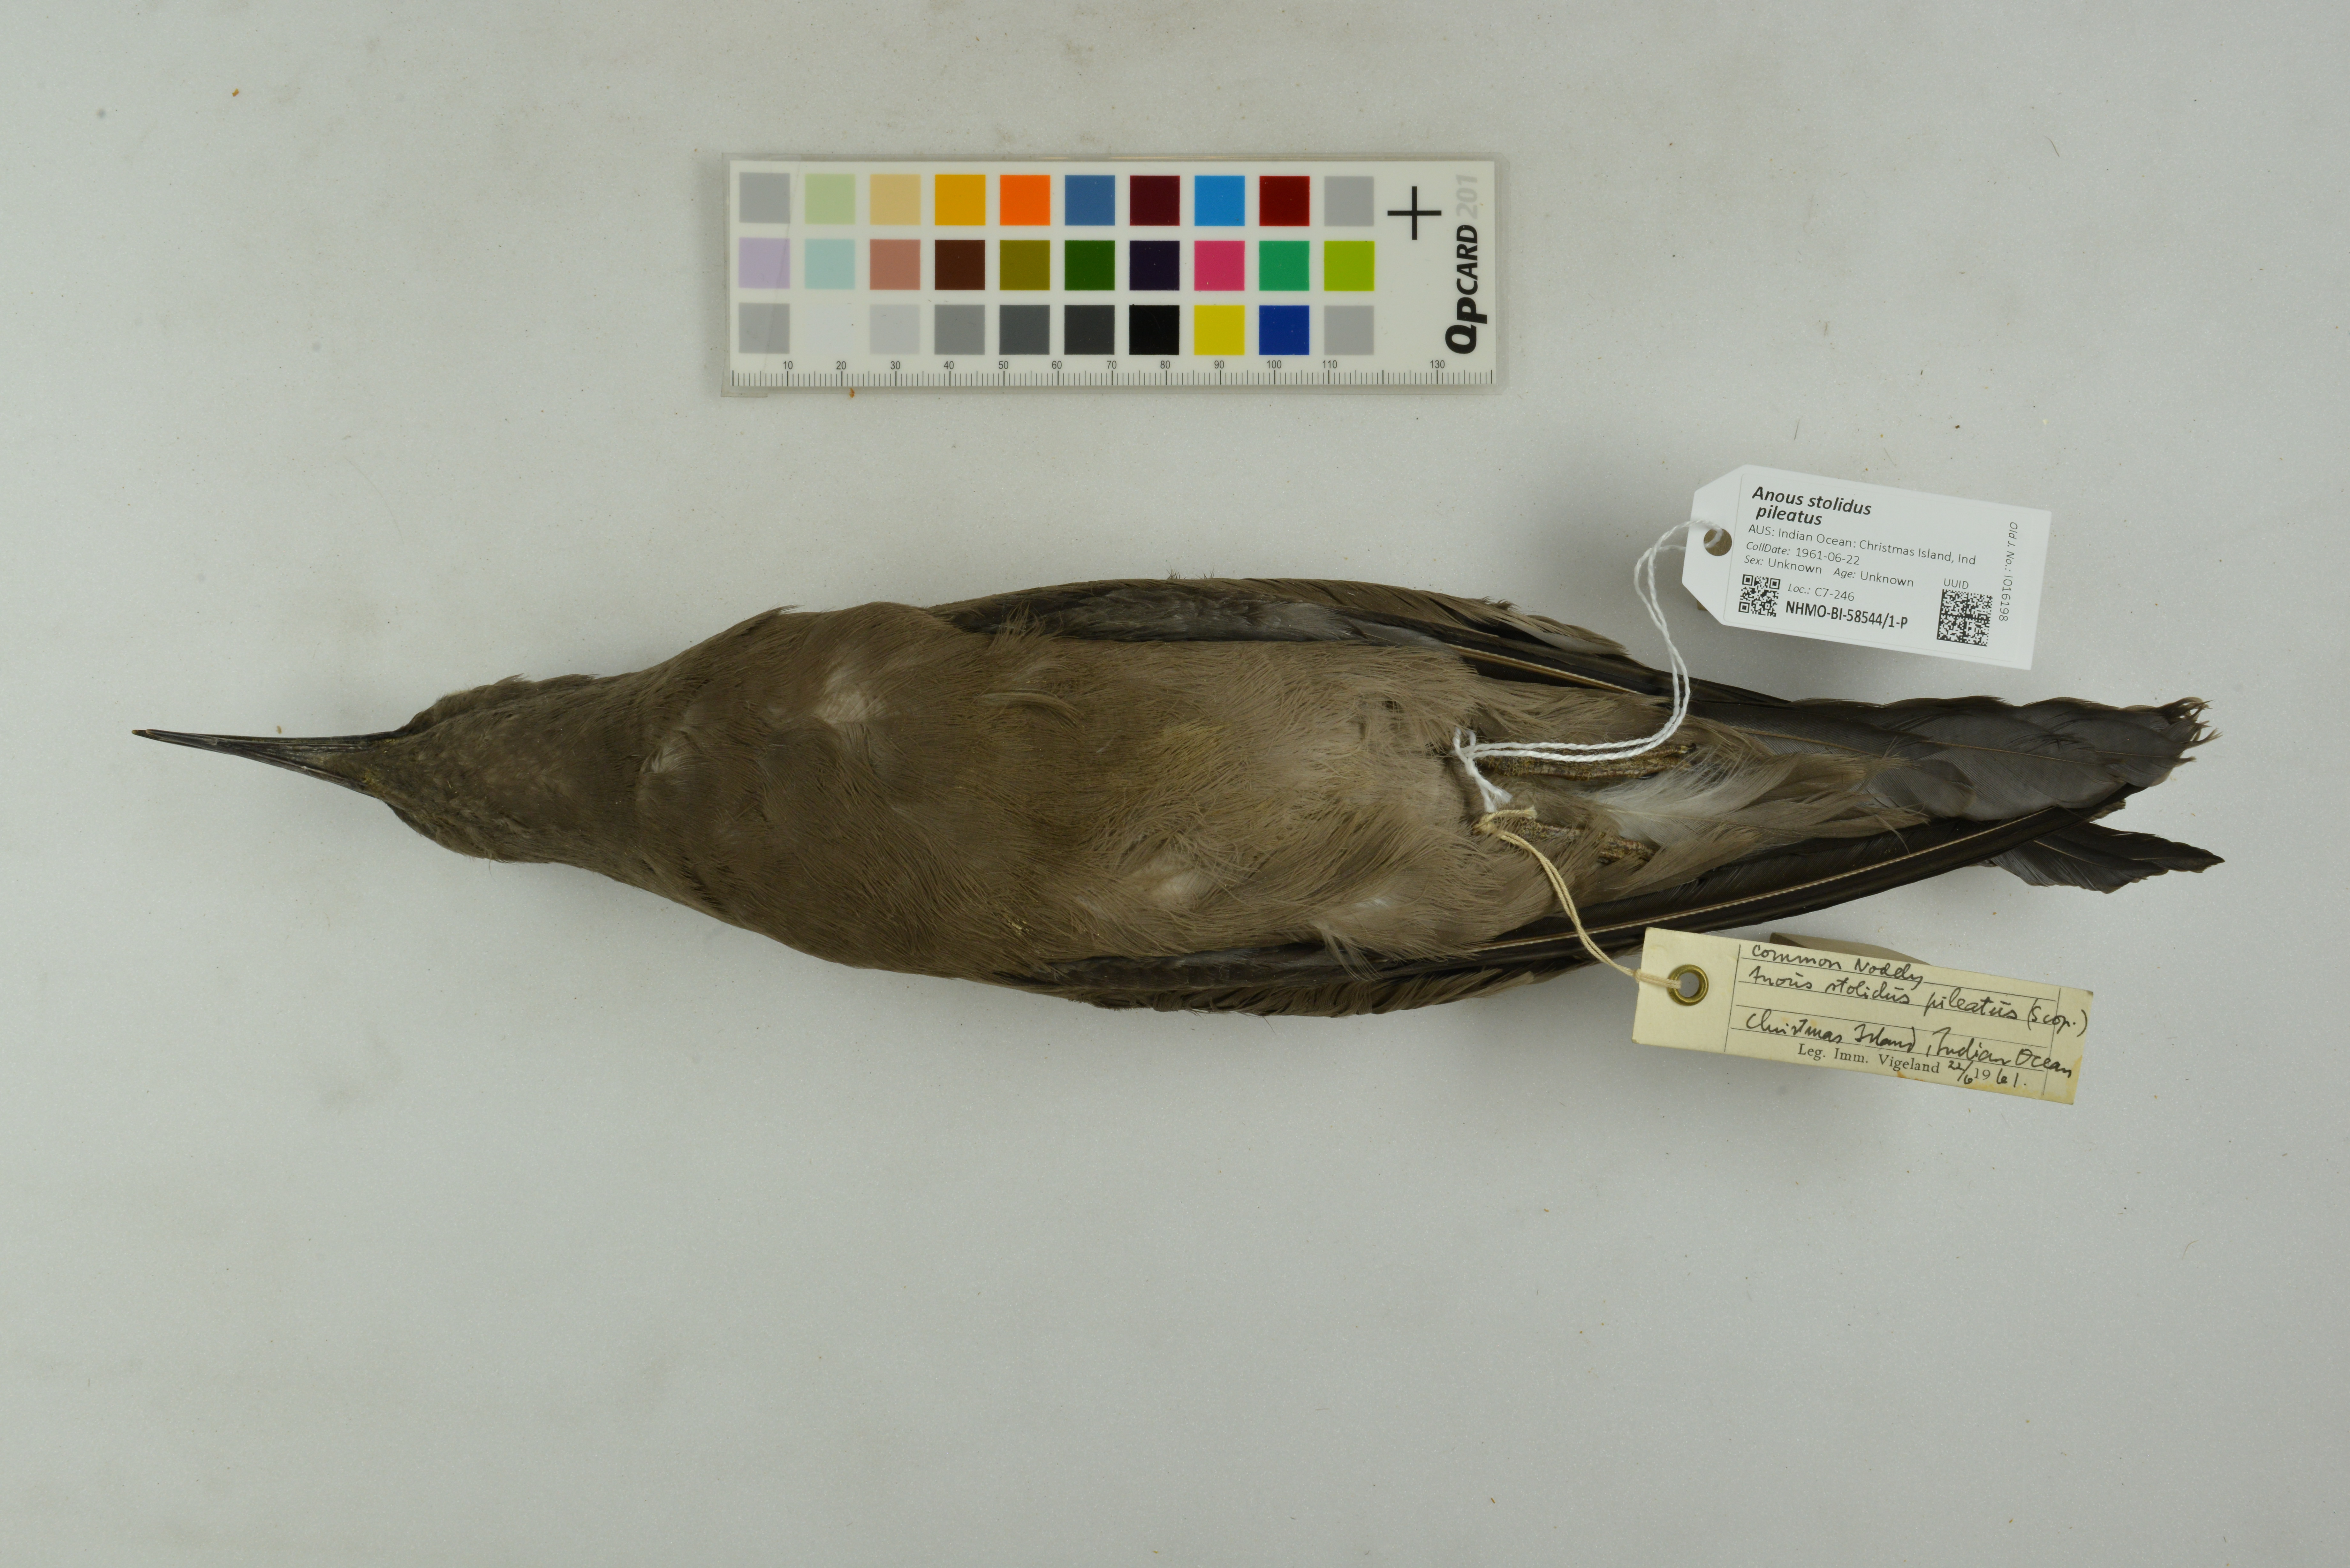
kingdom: Animalia
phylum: Chordata
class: Aves
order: Charadriiformes
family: Laridae
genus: Anous
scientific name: Anous stolidus
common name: Brown noddy
